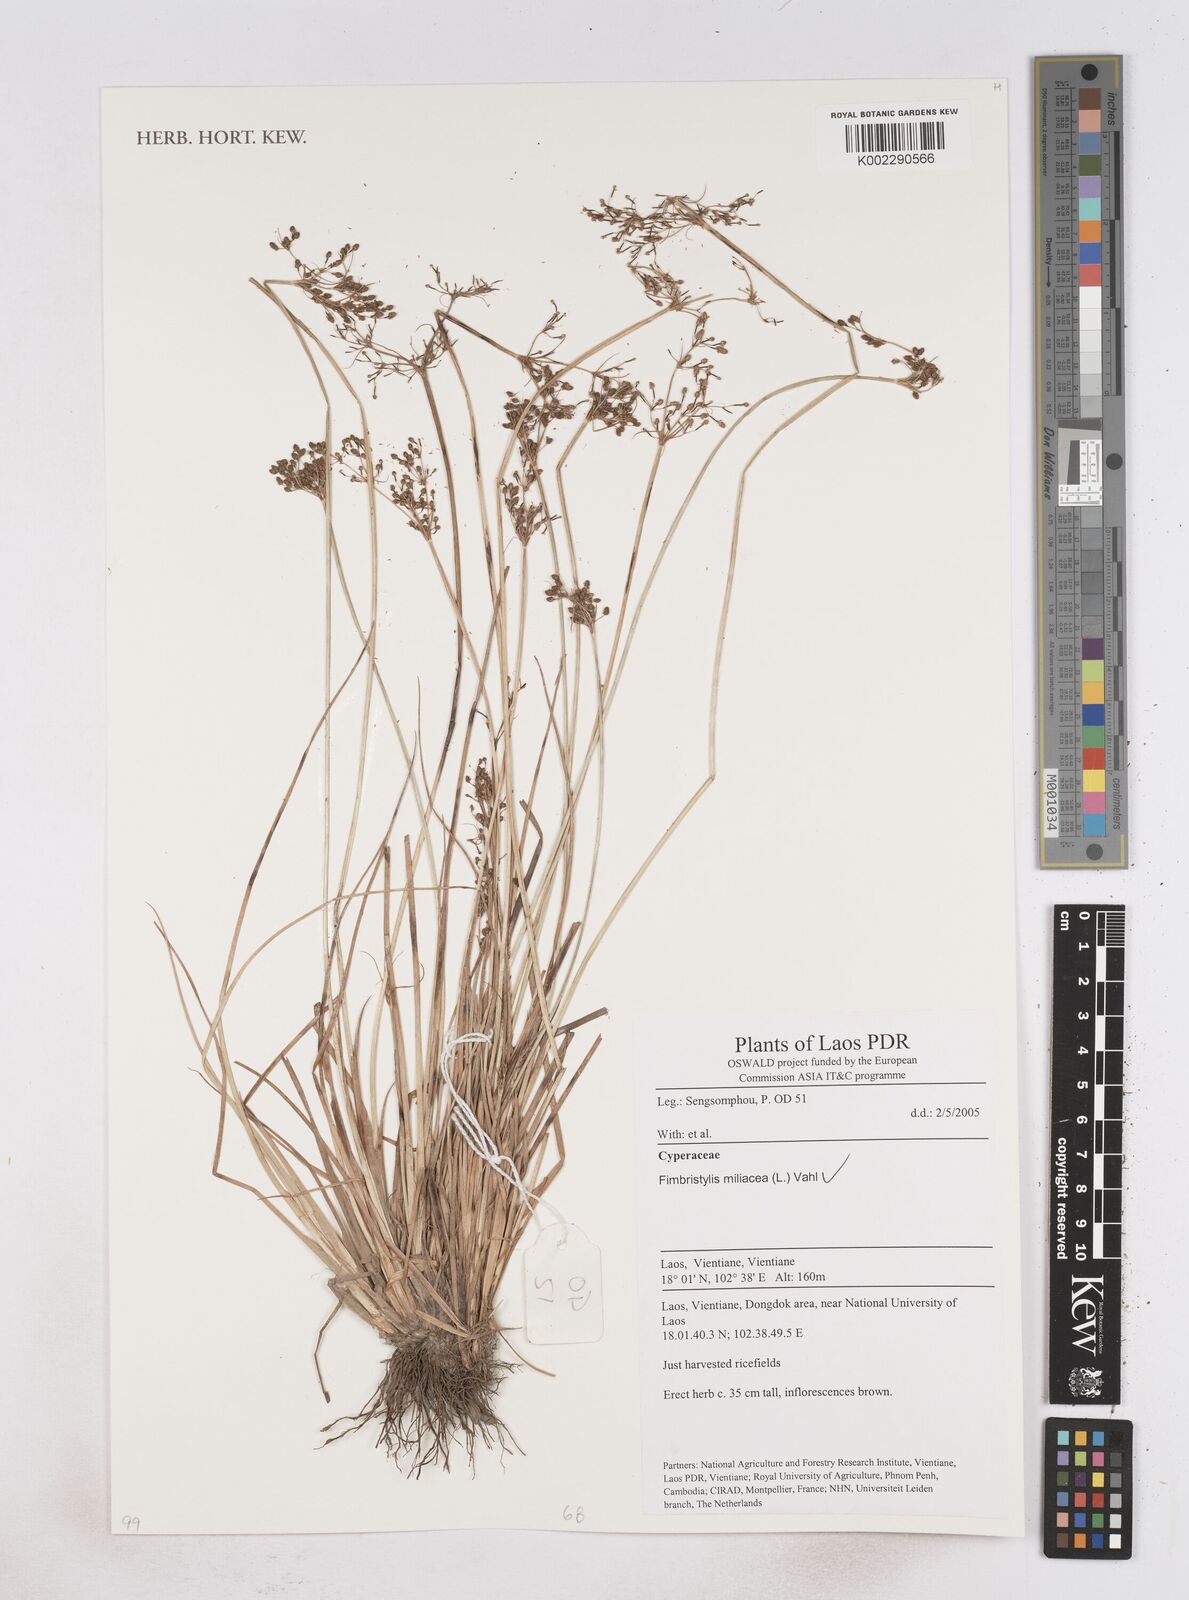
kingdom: Plantae
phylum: Tracheophyta
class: Liliopsida
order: Poales
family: Cyperaceae
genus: Fimbristylis
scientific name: Fimbristylis quinquangularis
